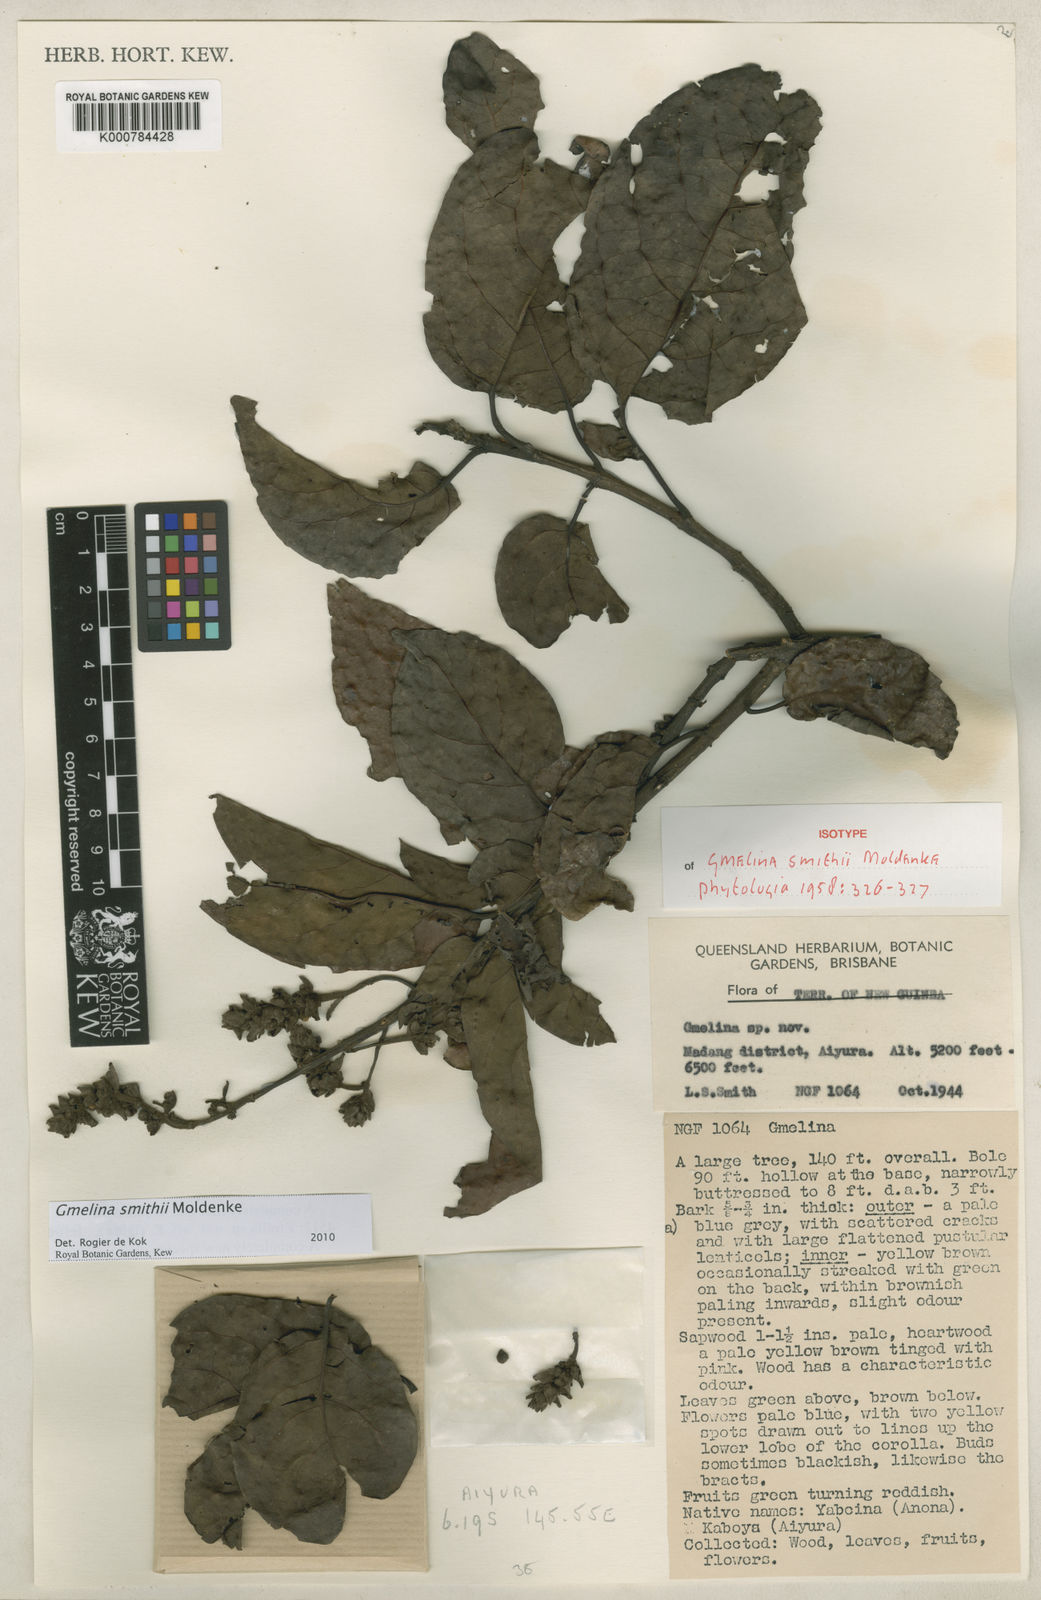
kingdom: Plantae
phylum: Tracheophyta
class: Magnoliopsida
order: Lamiales
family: Lamiaceae
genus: Gmelina
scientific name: Gmelina smithii
